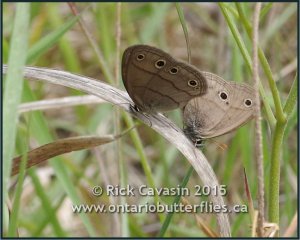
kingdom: Animalia
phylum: Arthropoda
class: Insecta
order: Lepidoptera
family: Nymphalidae
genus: Euptychia
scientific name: Euptychia cymela
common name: Little Wood Satyr
